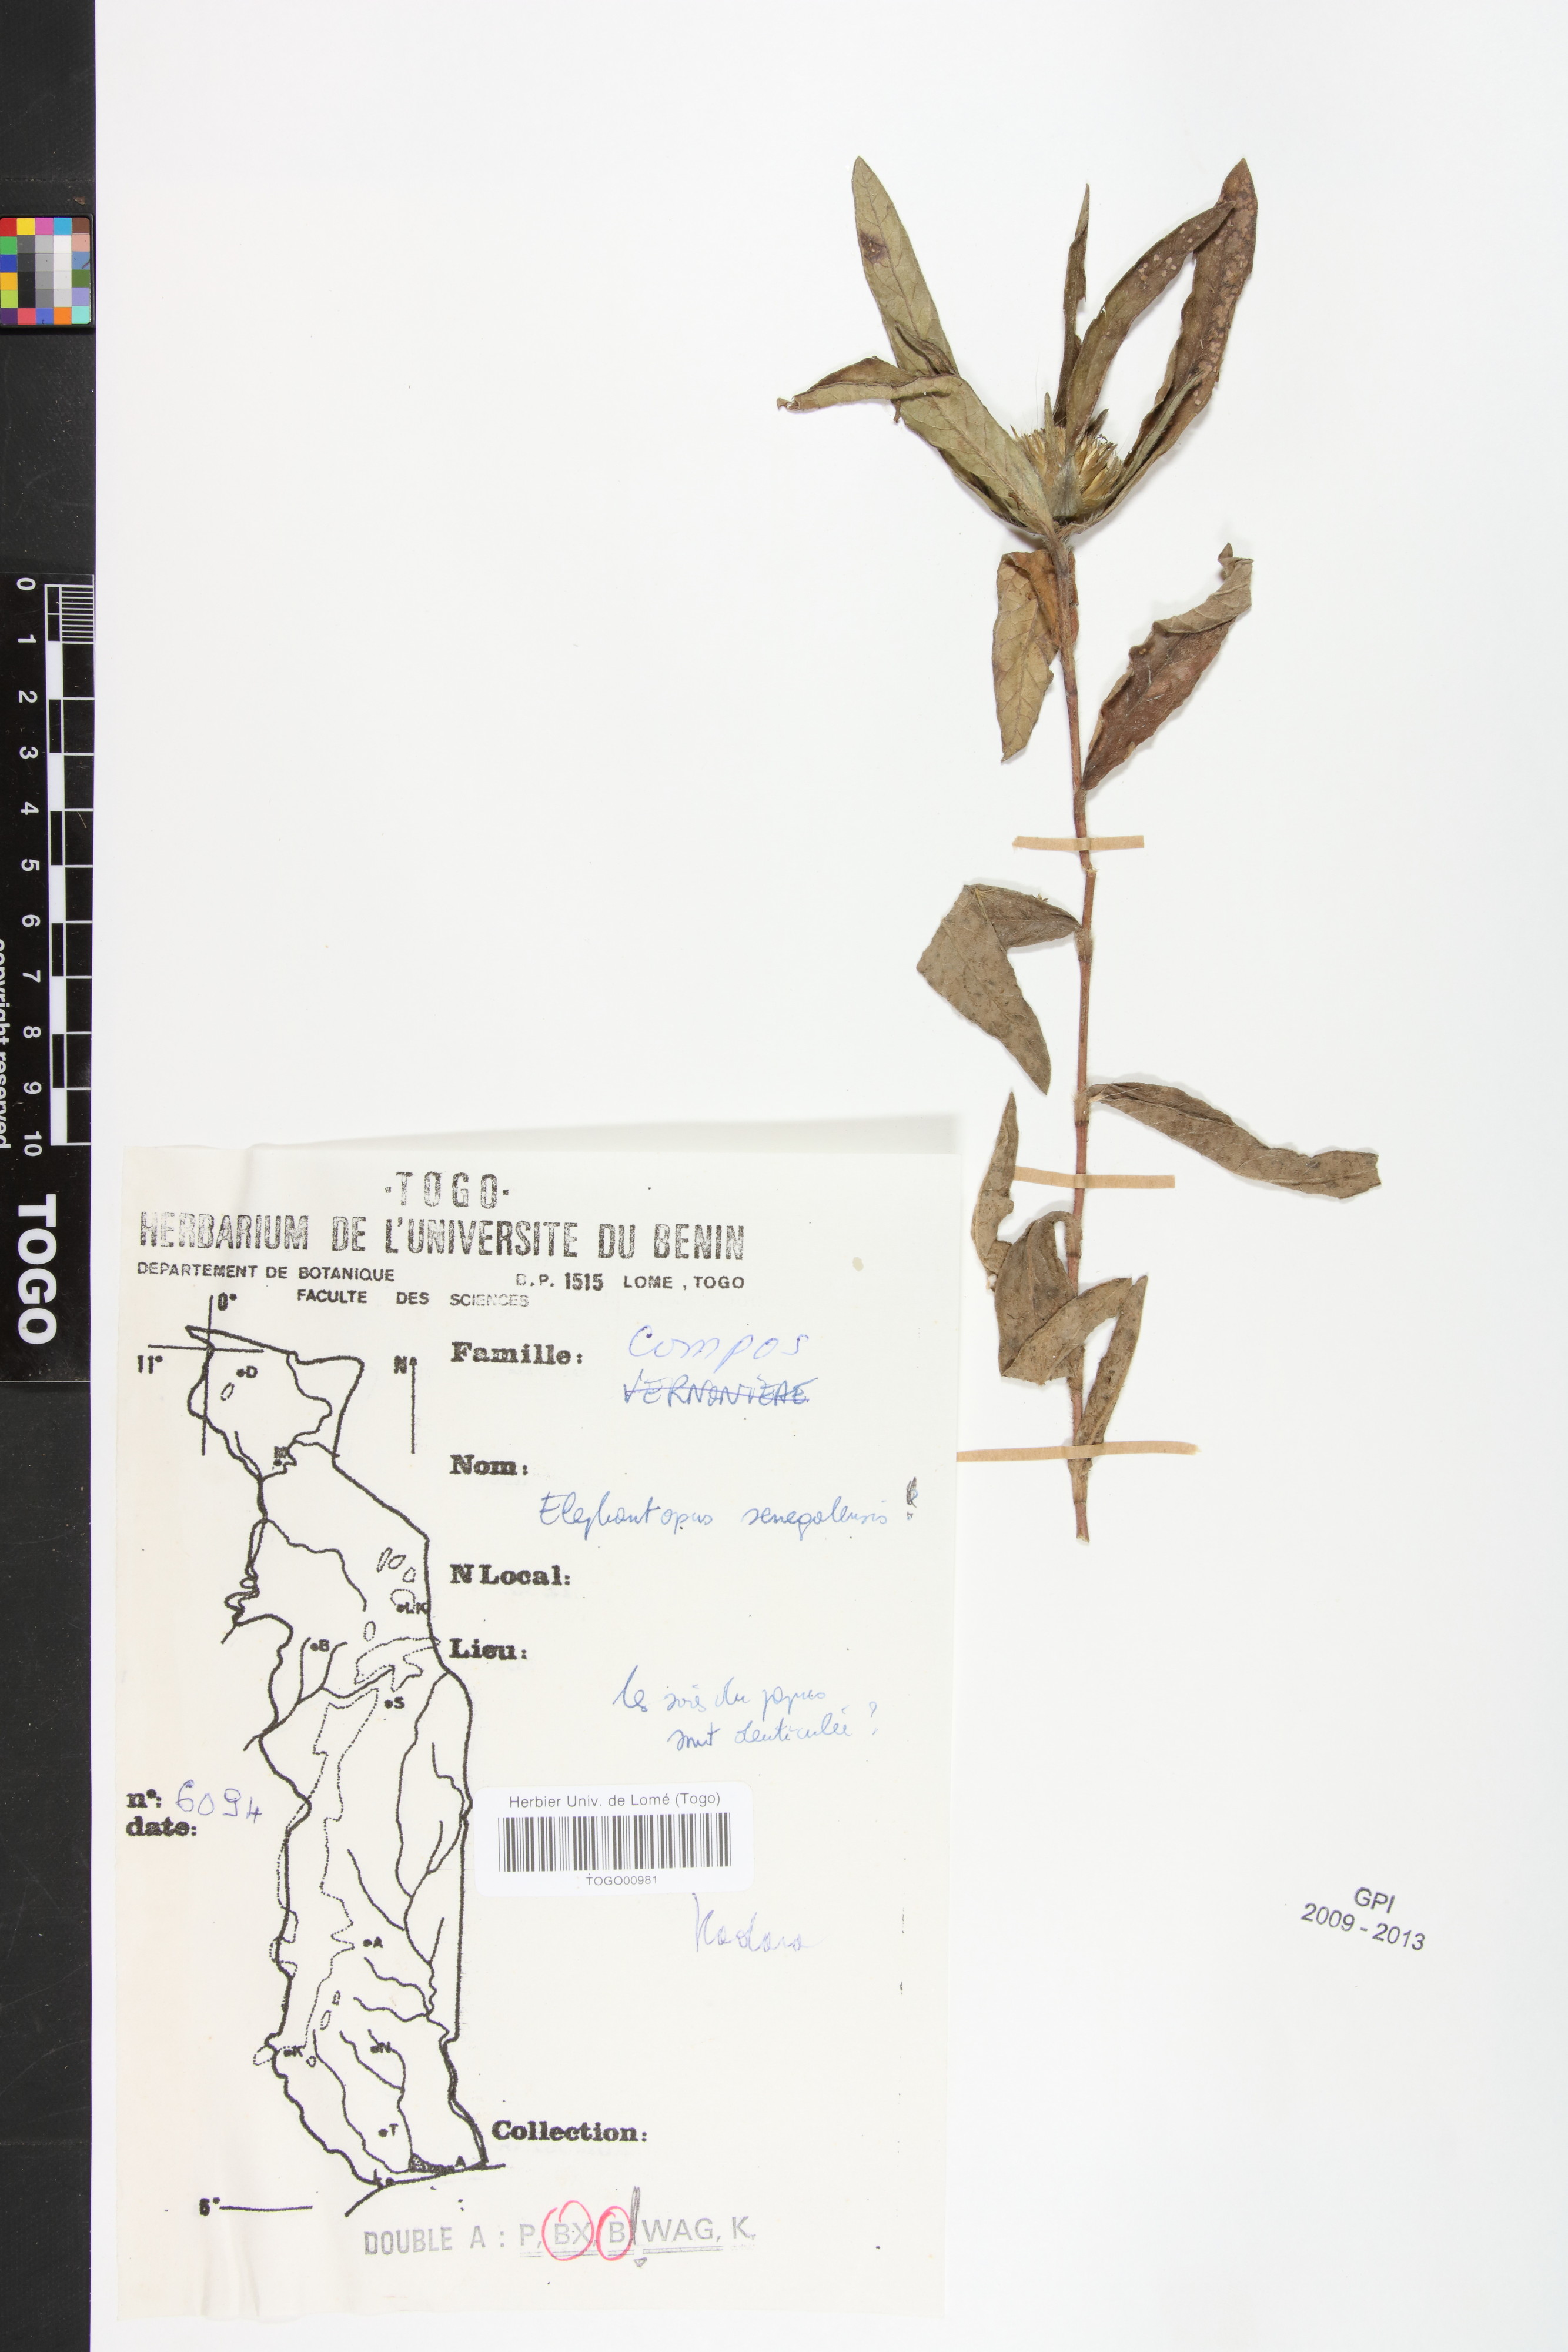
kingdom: Plantae
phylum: Tracheophyta
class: Magnoliopsida
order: Asterales
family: Asteraceae
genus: Elephantopus
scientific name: Elephantopus mollis
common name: Soft elephantsfoot
